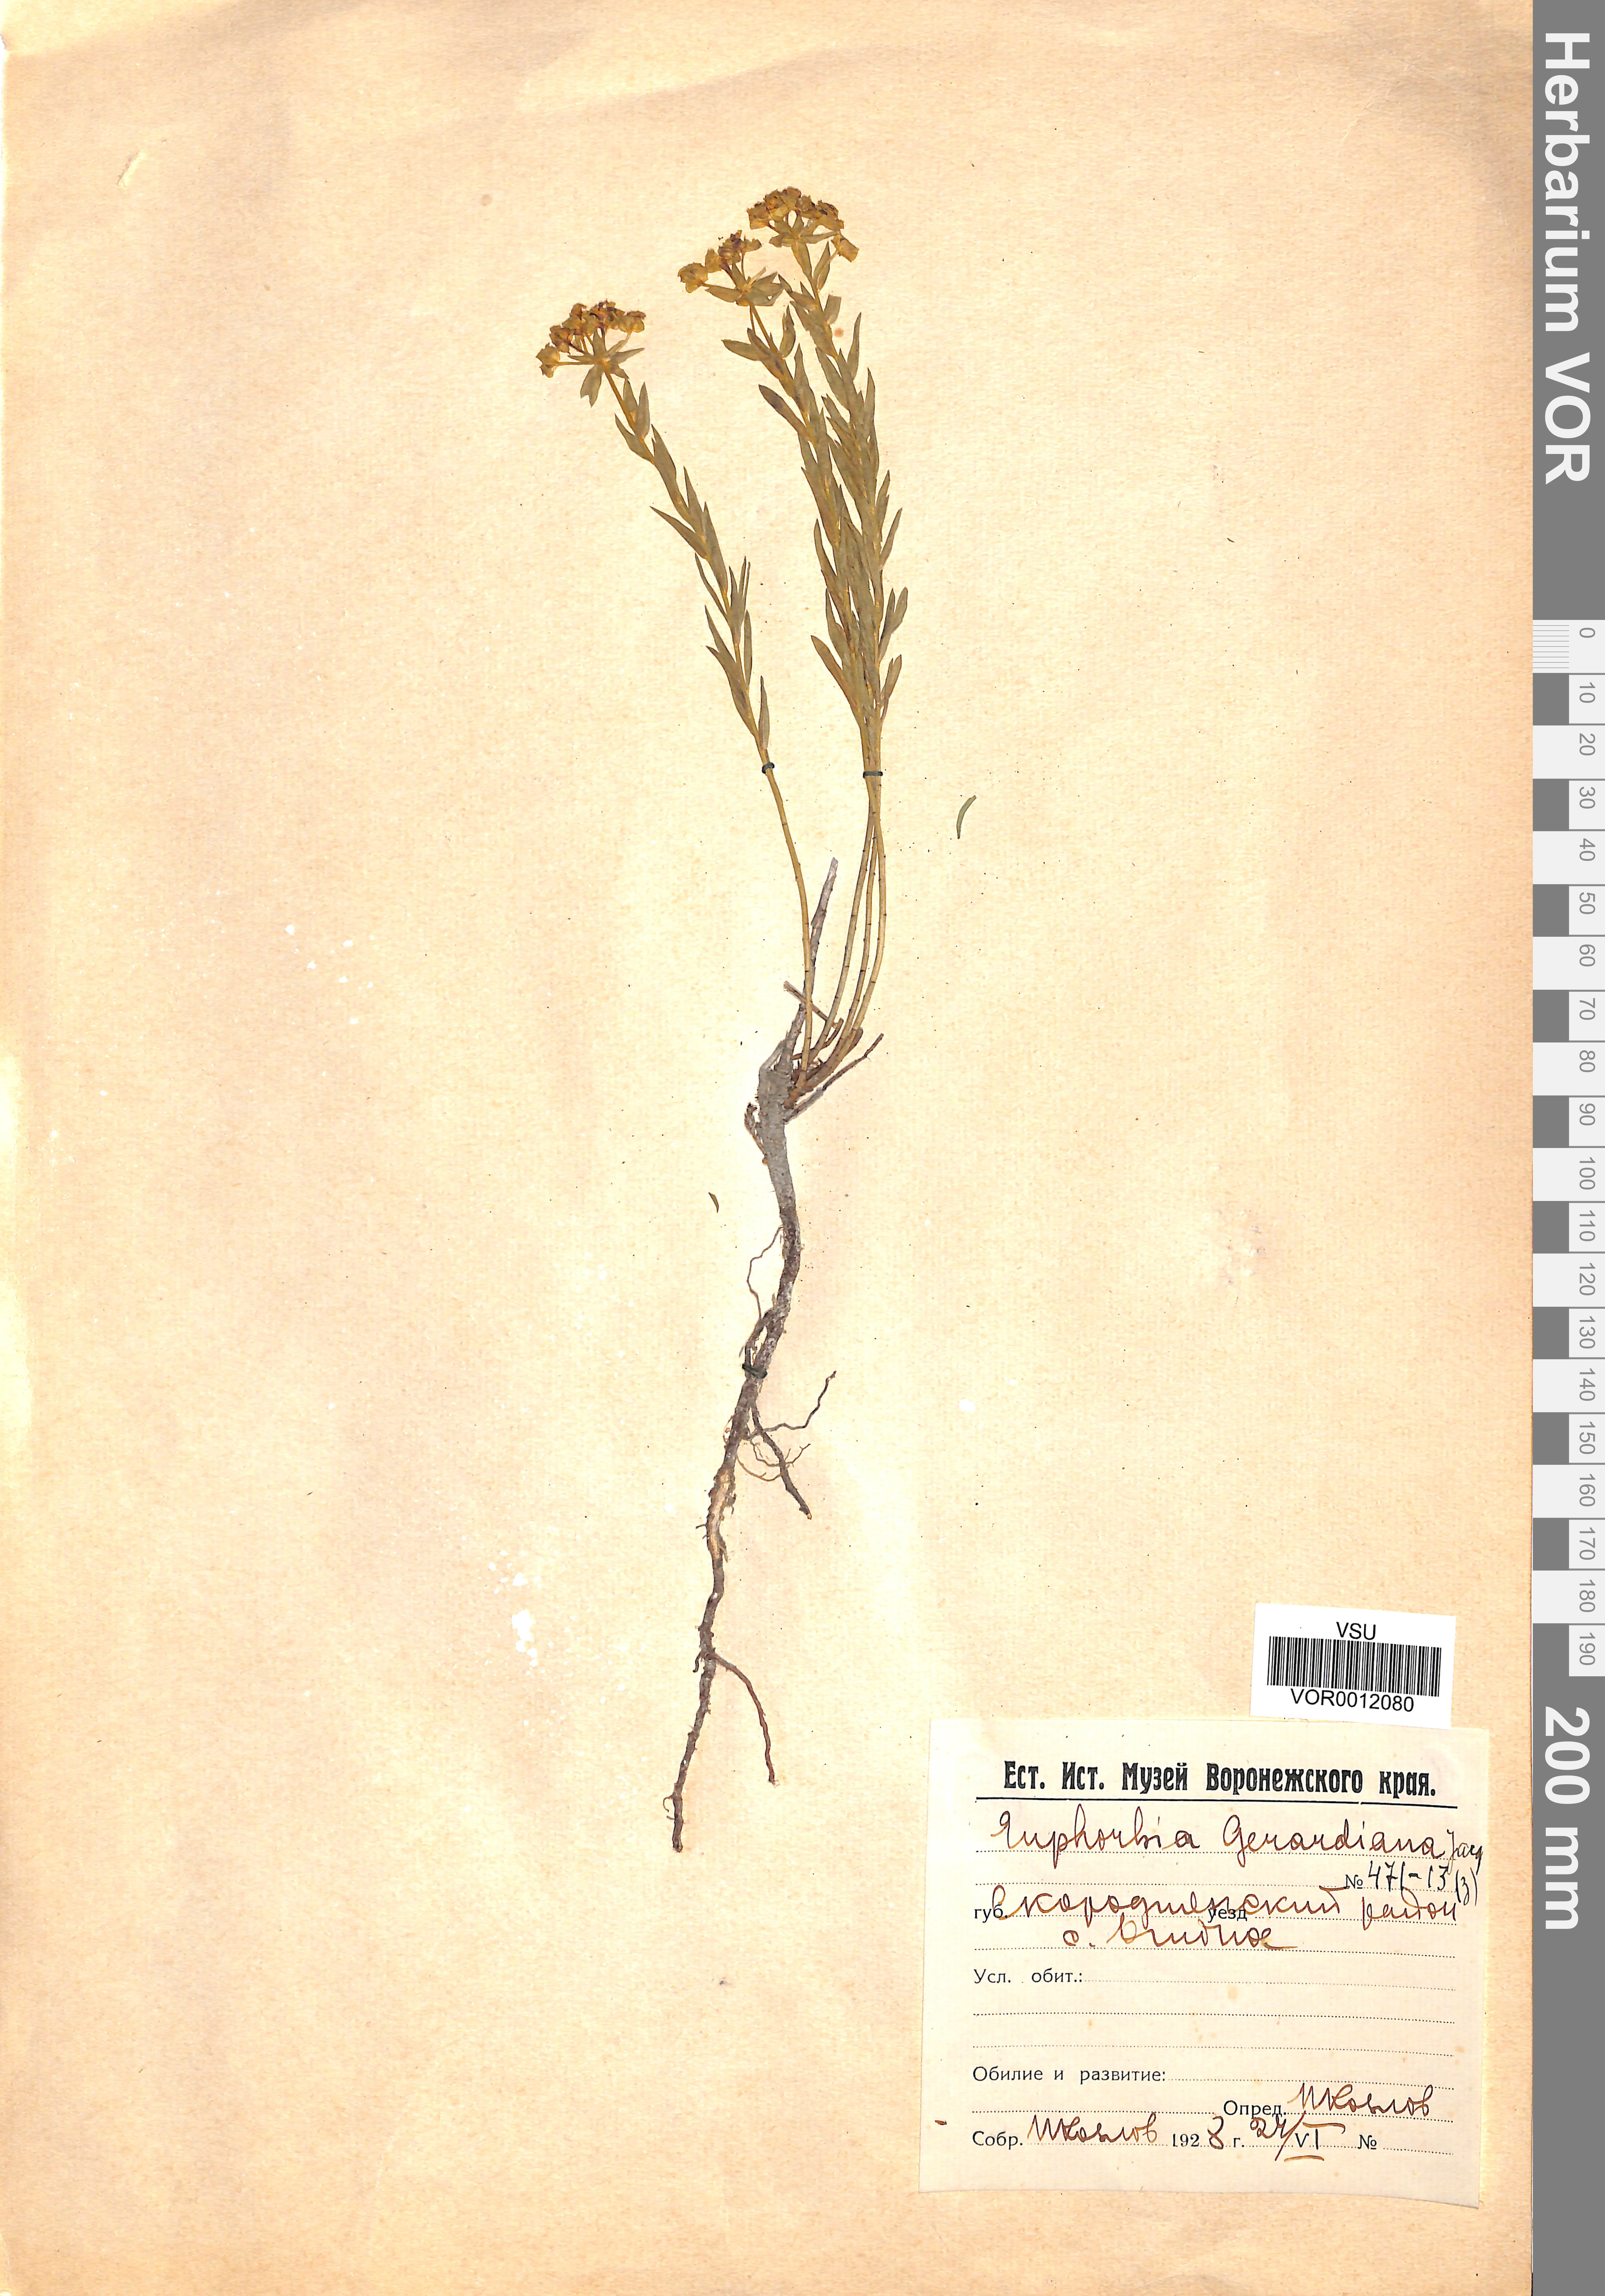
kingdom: Plantae
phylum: Tracheophyta
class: Magnoliopsida
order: Malpighiales
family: Euphorbiaceae
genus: Euphorbia
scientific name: Euphorbia seguieriana
